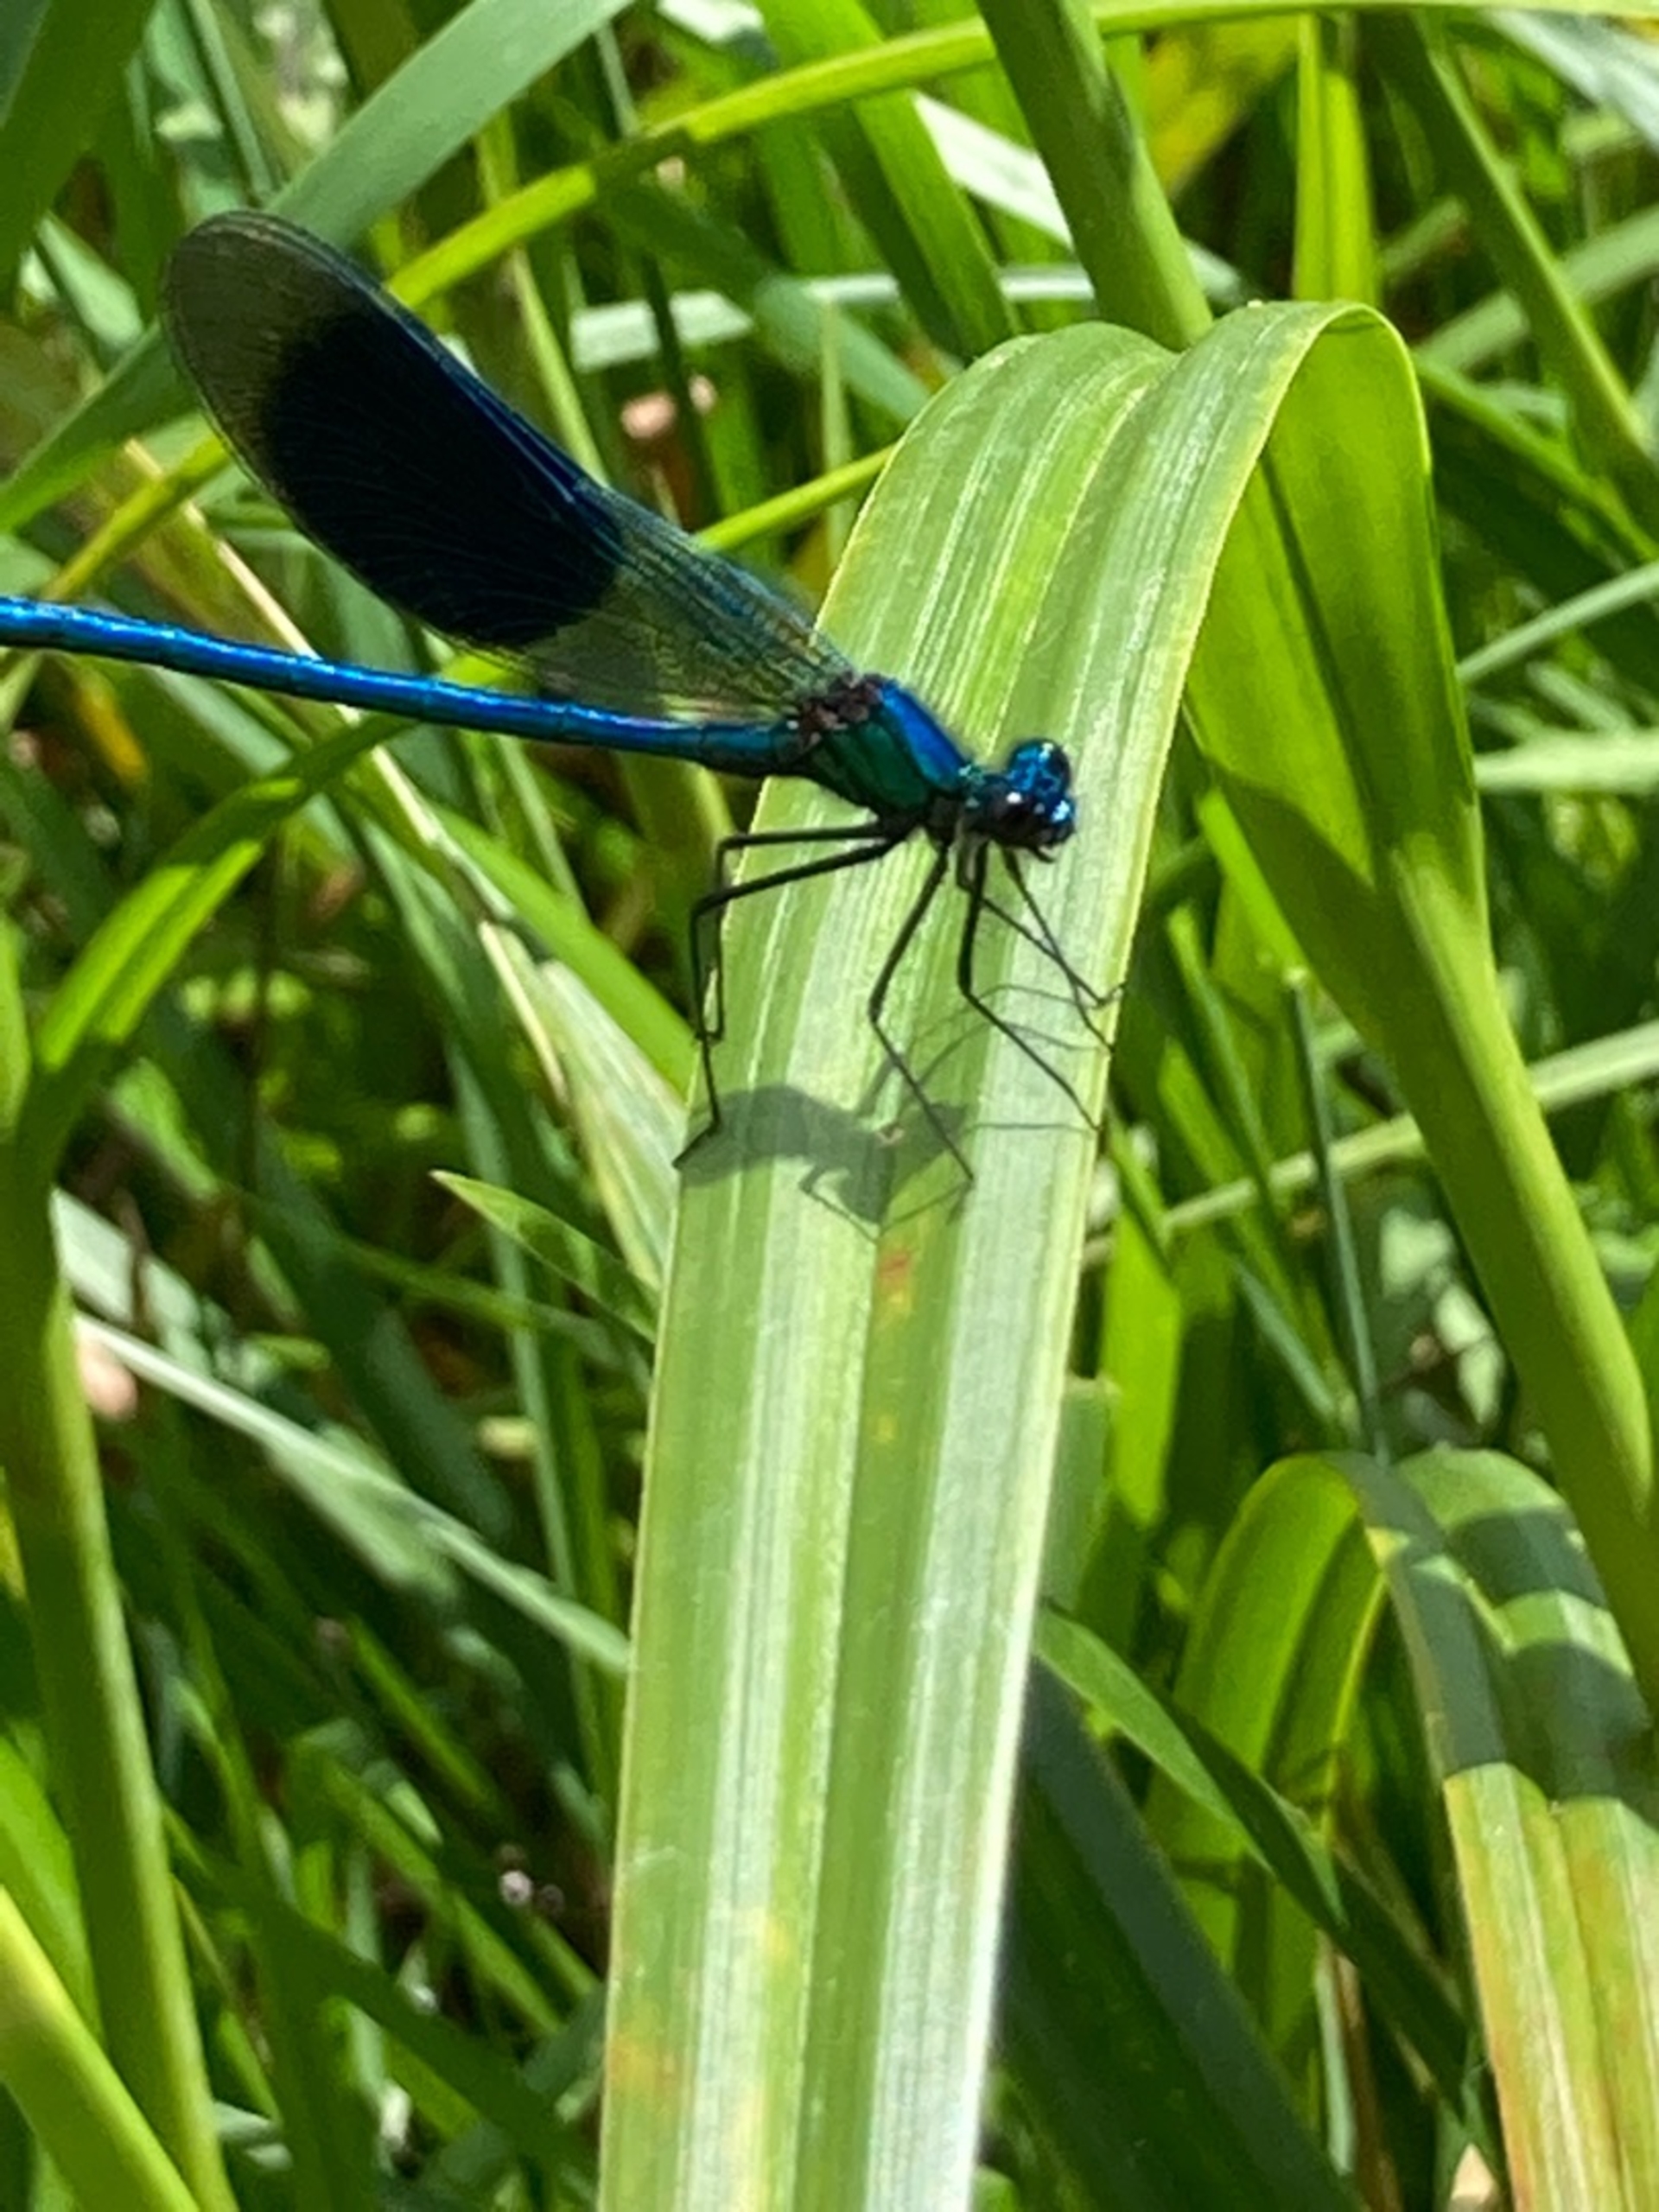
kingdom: Animalia
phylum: Arthropoda
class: Insecta
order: Odonata
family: Calopterygidae
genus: Calopteryx
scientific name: Calopteryx splendens
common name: Blåbåndet pragtvandnymfe
